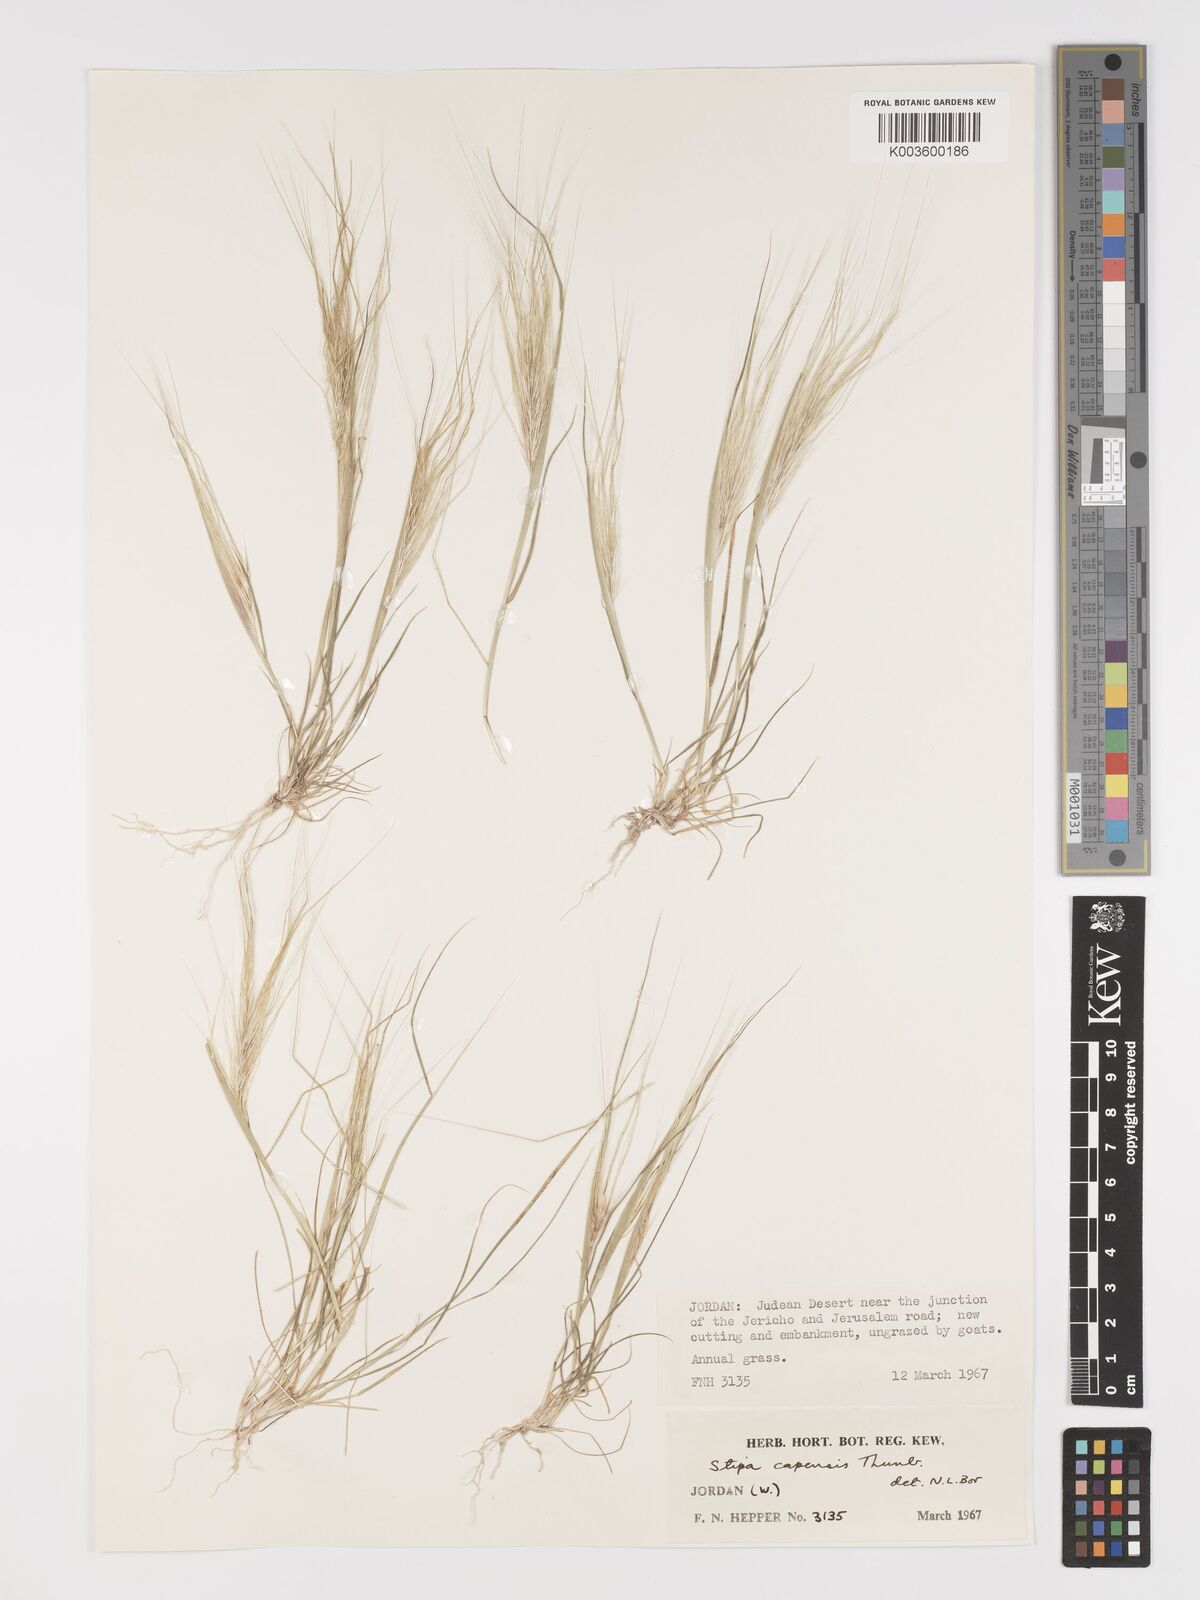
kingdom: Plantae
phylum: Tracheophyta
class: Liliopsida
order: Poales
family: Poaceae
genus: Stipellula
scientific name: Stipellula capensis
